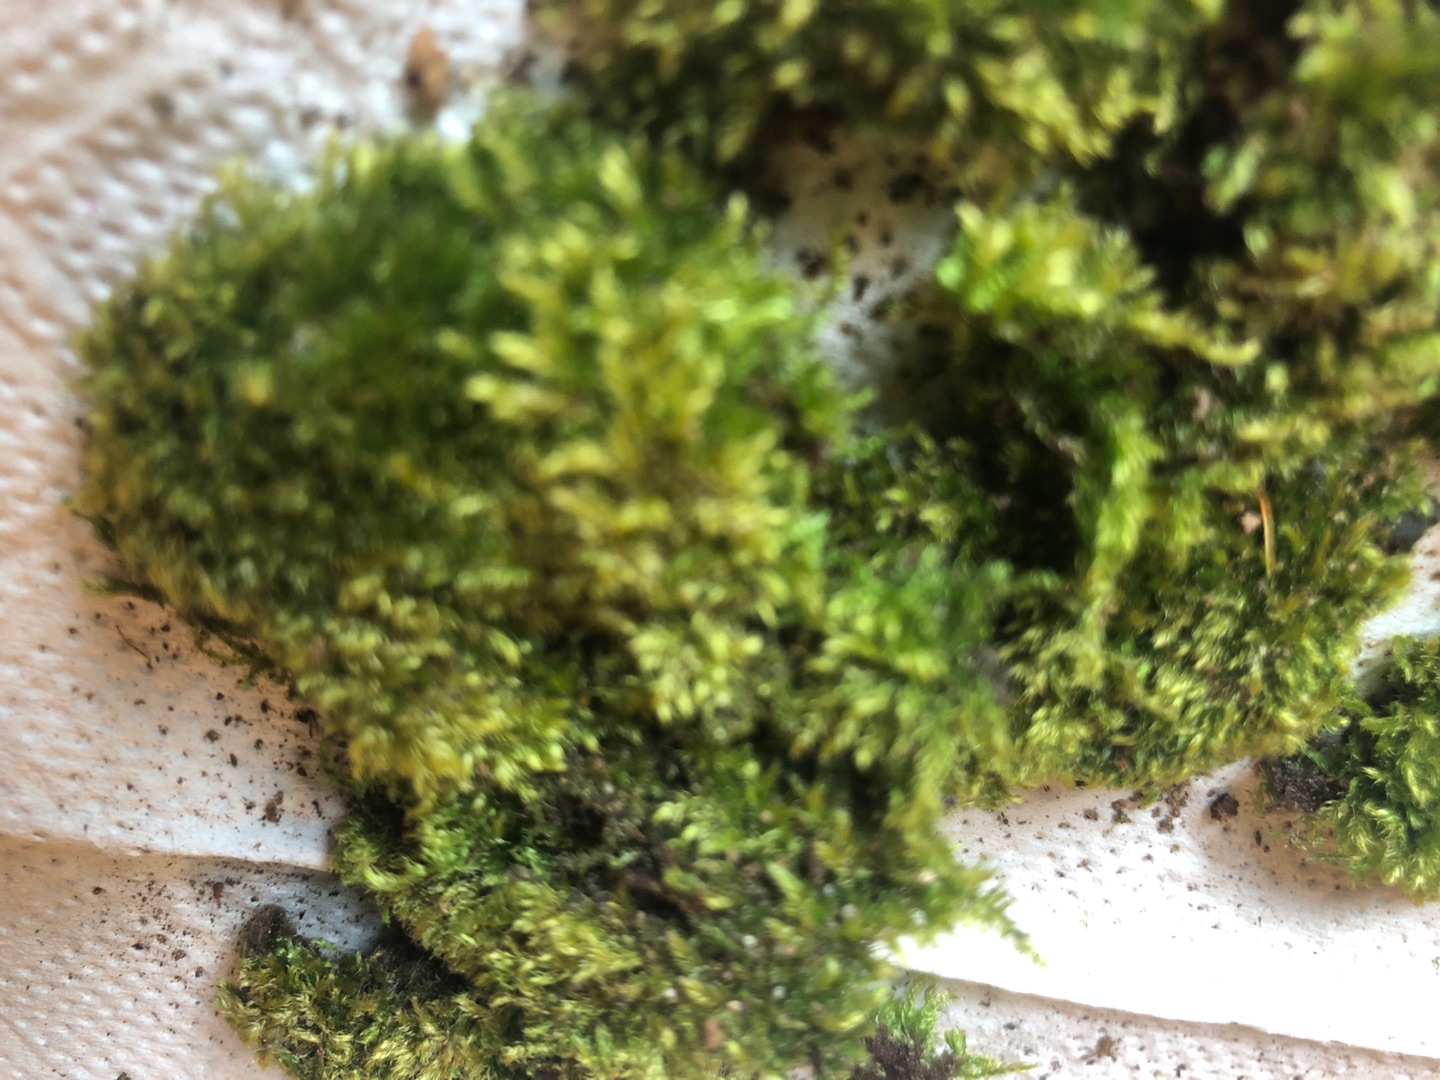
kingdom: Plantae
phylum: Bryophyta
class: Bryopsida
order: Hypnales
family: Brachytheciaceae
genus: Brachytheciastrum
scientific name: Brachytheciastrum velutinum
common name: Fløjls-kortkapsel
